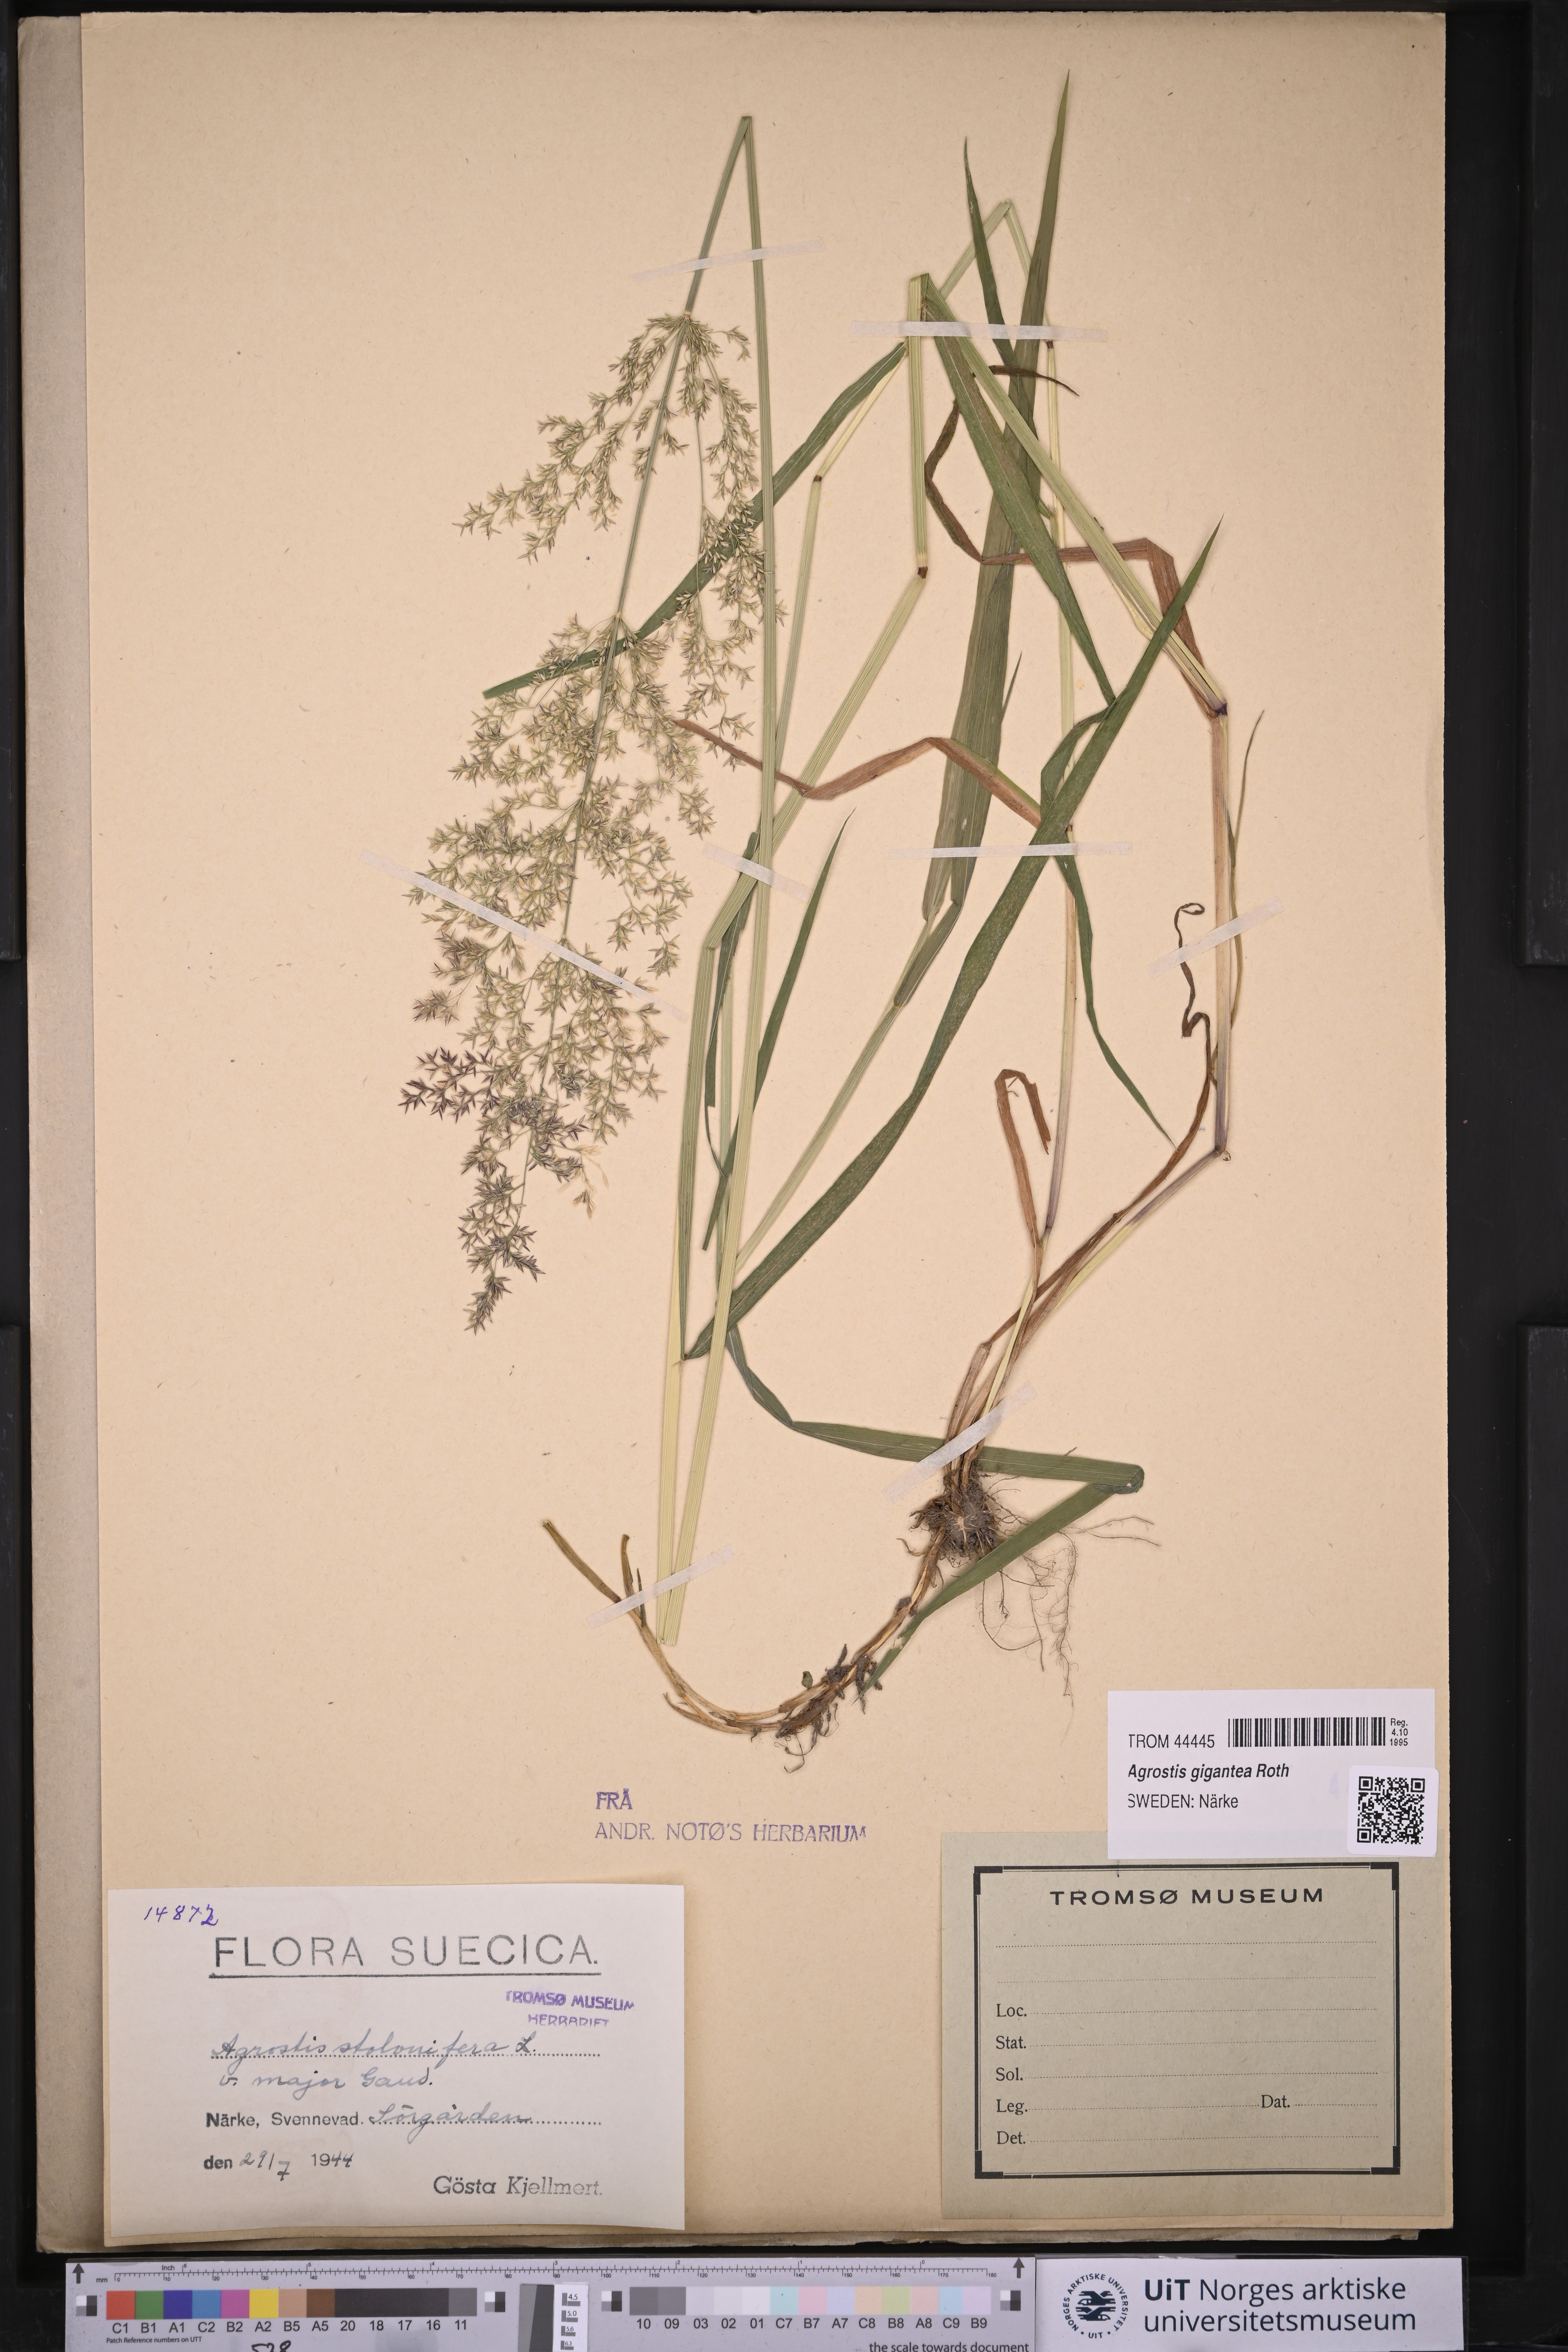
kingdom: Plantae
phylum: Tracheophyta
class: Liliopsida
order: Poales
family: Poaceae
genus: Agrostis
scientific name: Agrostis gigantea
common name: Black bent
